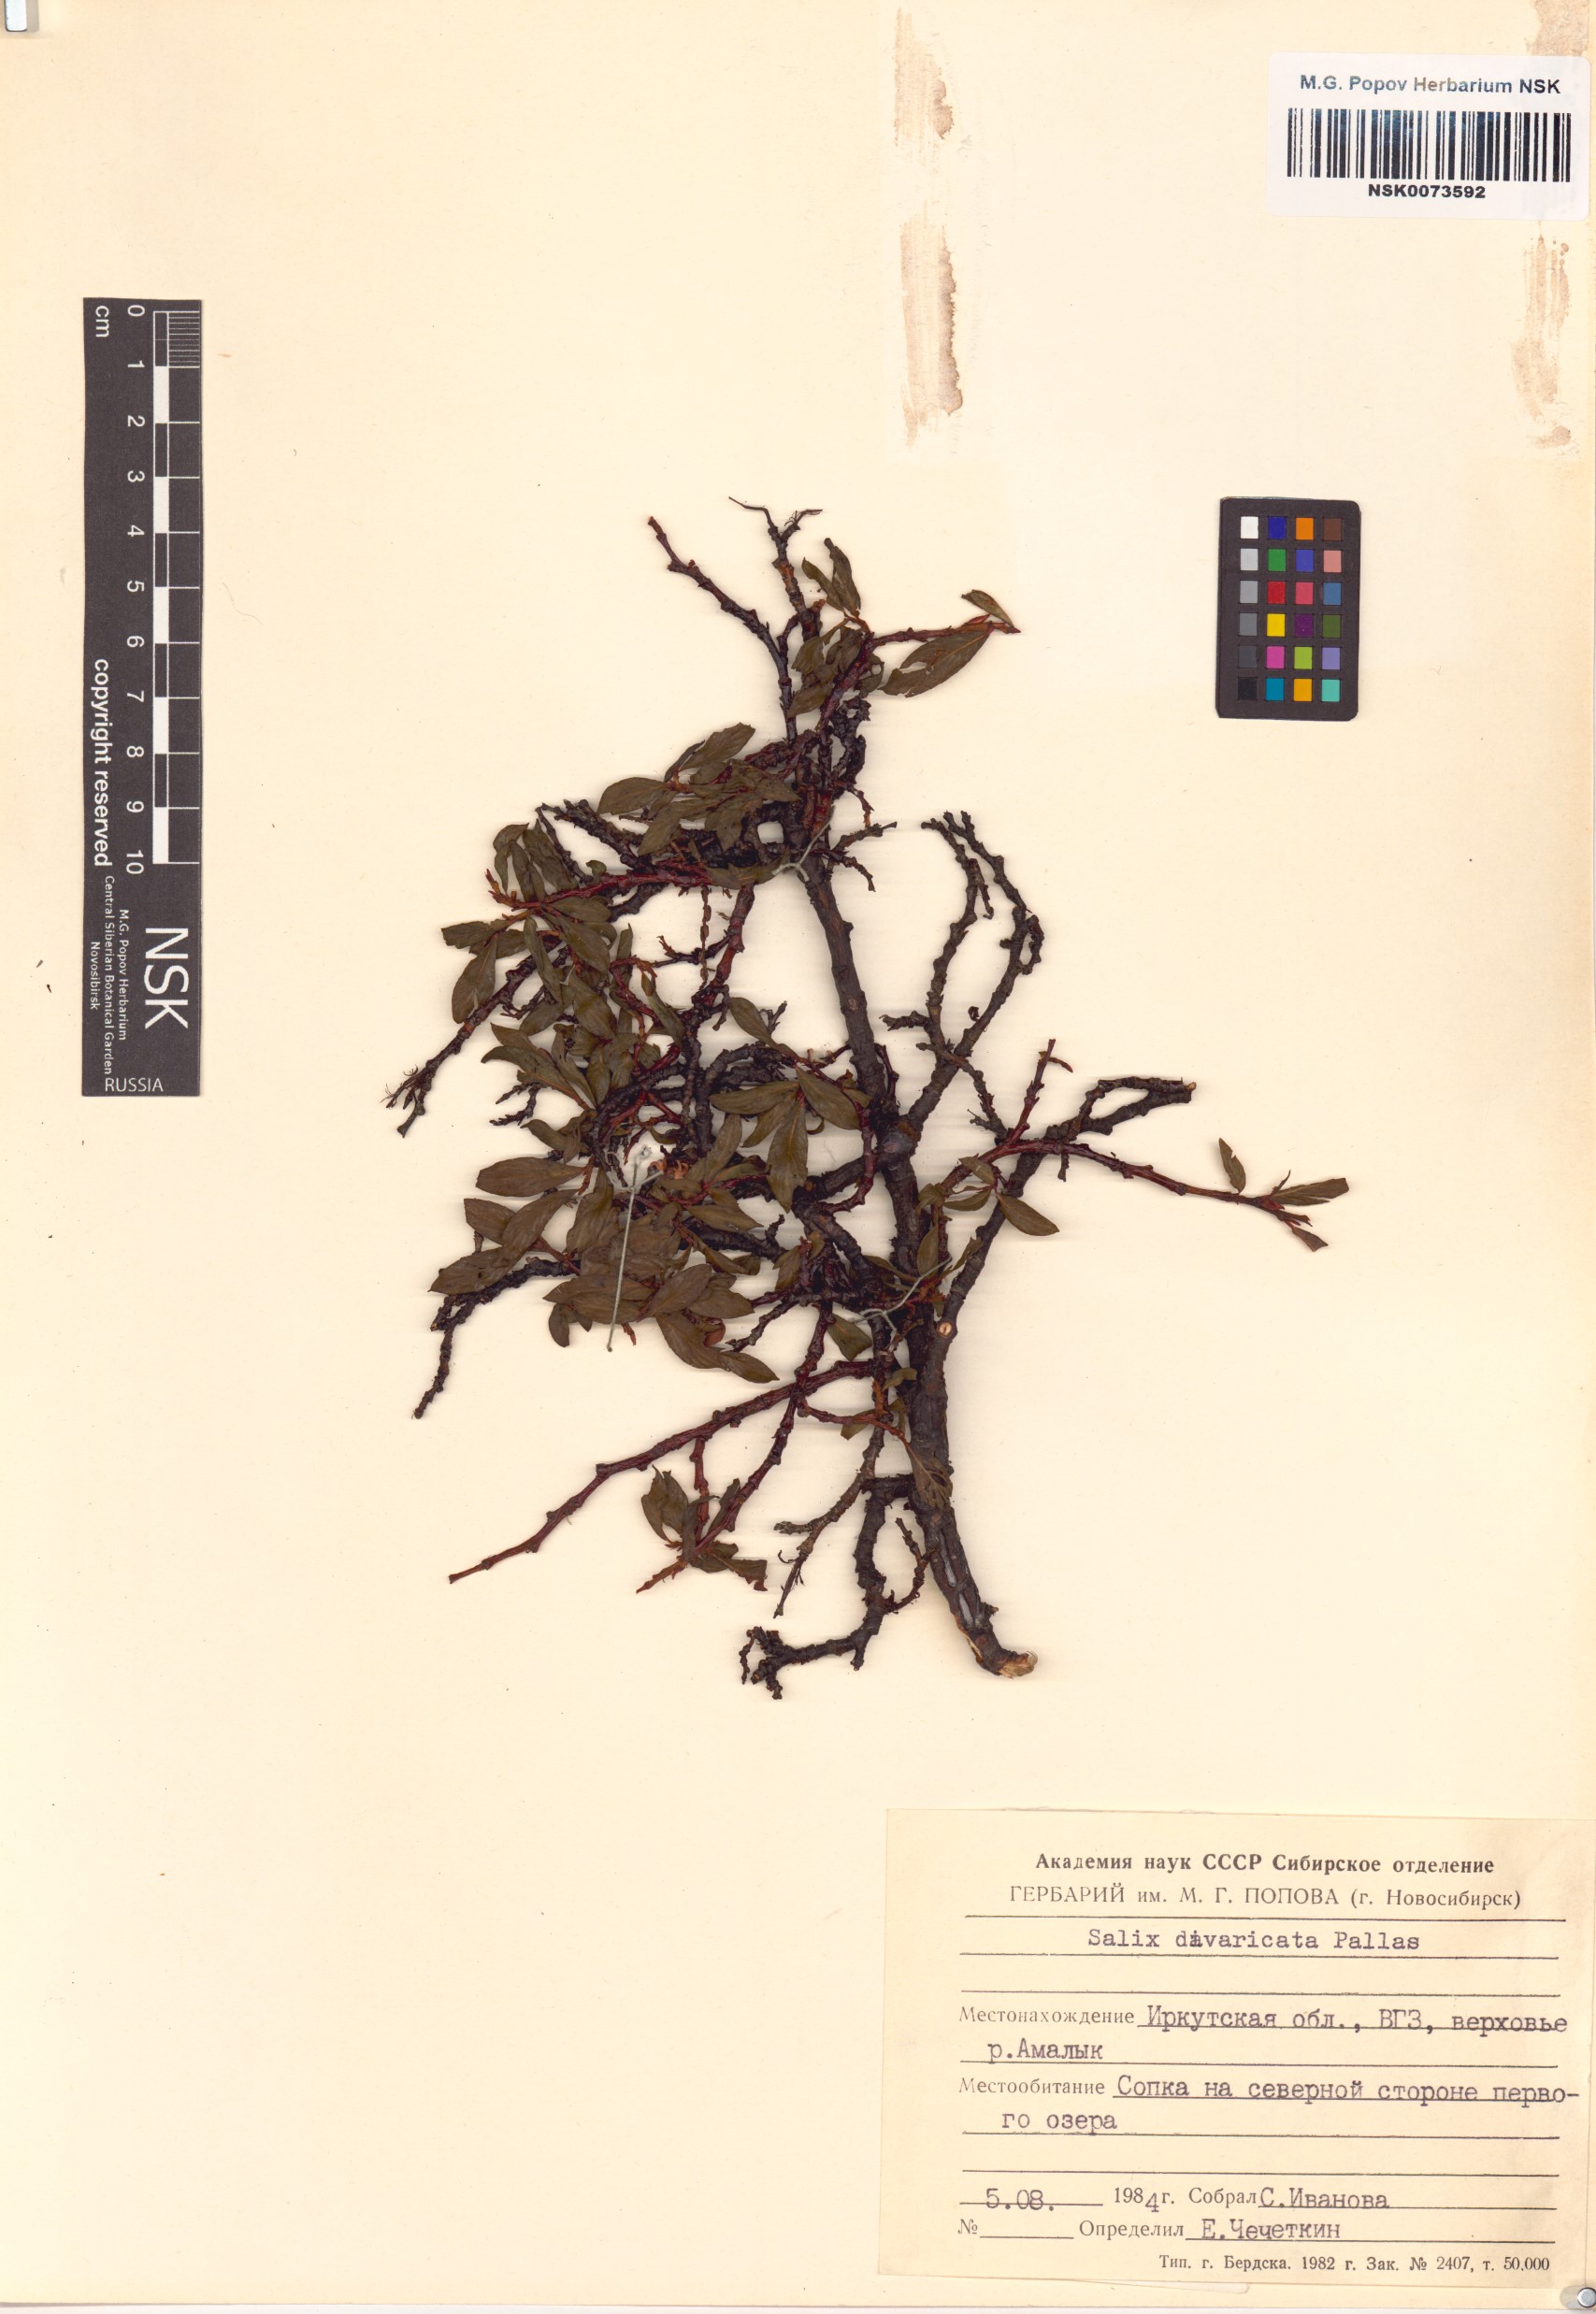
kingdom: Plantae
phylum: Tracheophyta
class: Magnoliopsida
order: Malpighiales
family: Salicaceae
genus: Salix
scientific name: Salix divaricata
